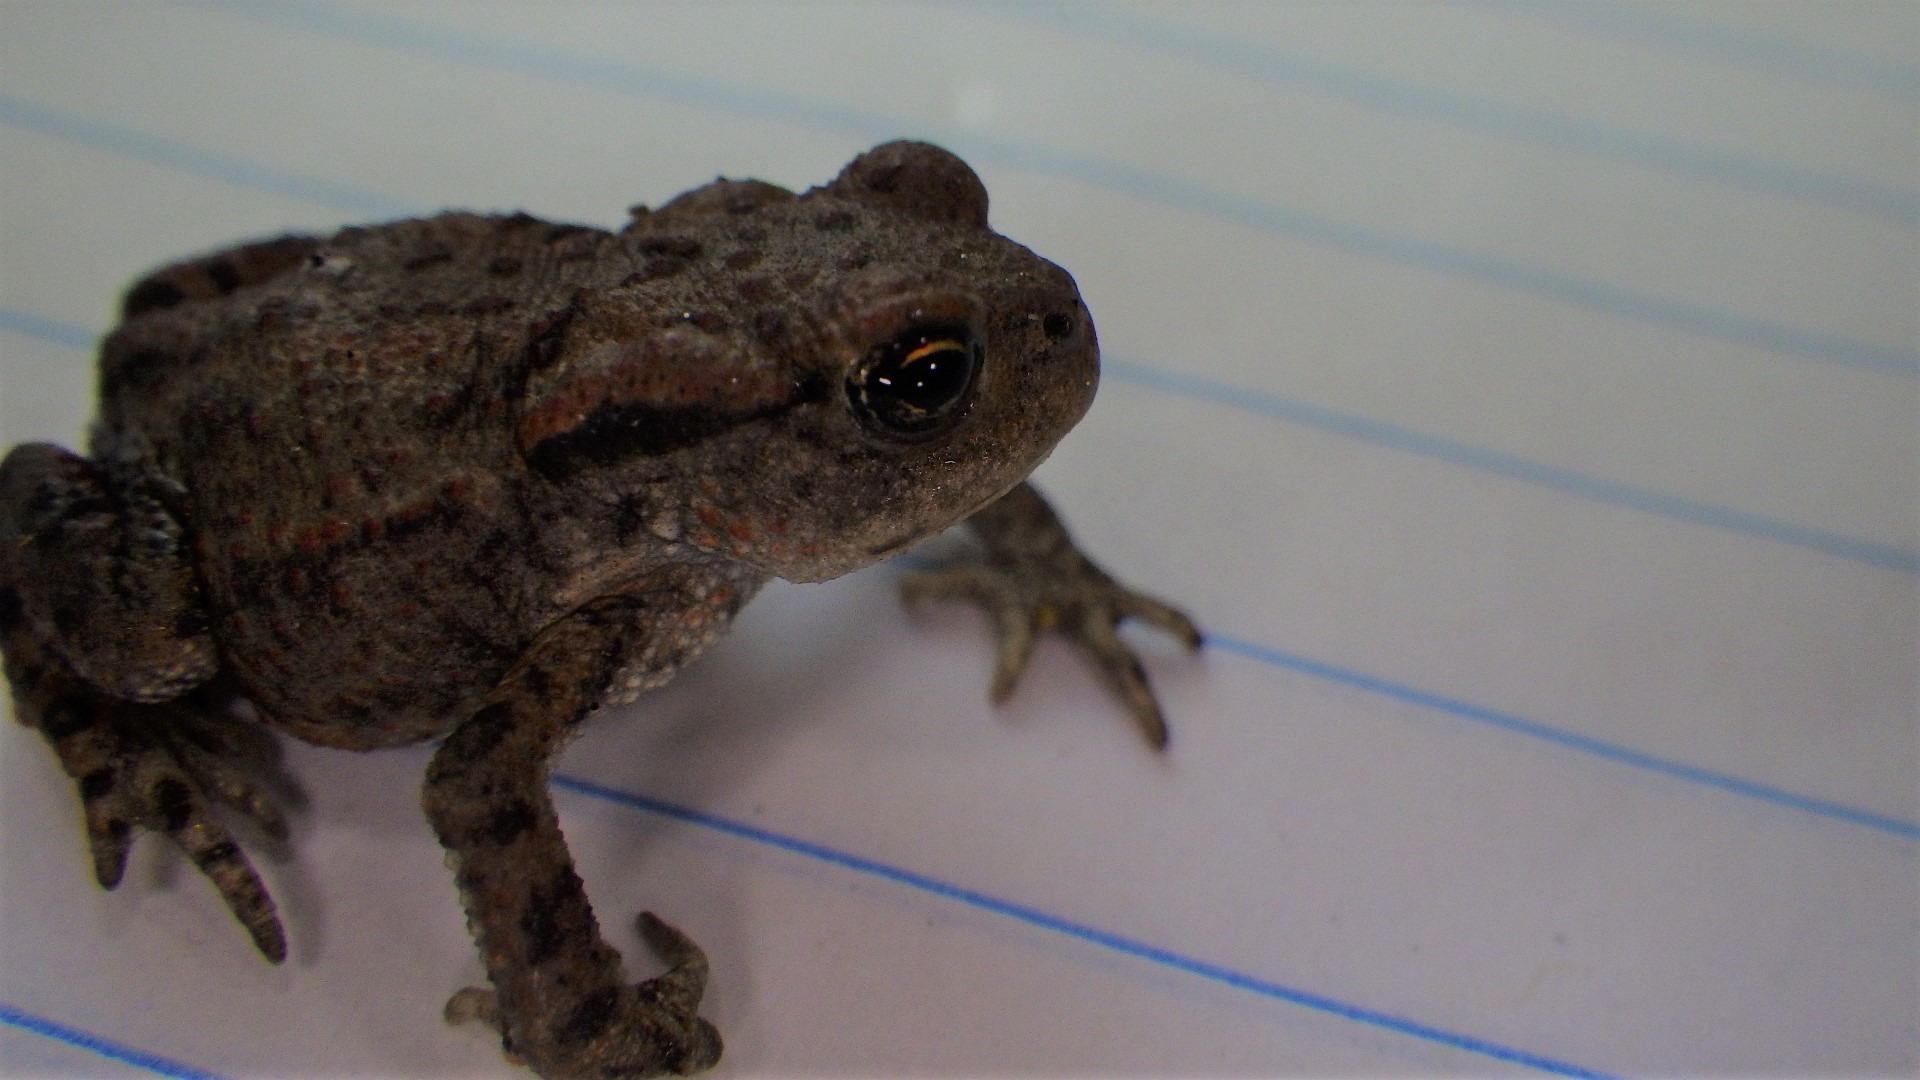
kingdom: Animalia
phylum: Chordata
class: Amphibia
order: Anura
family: Bufonidae
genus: Bufo
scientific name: Bufo bufo
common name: Skrubtudse
